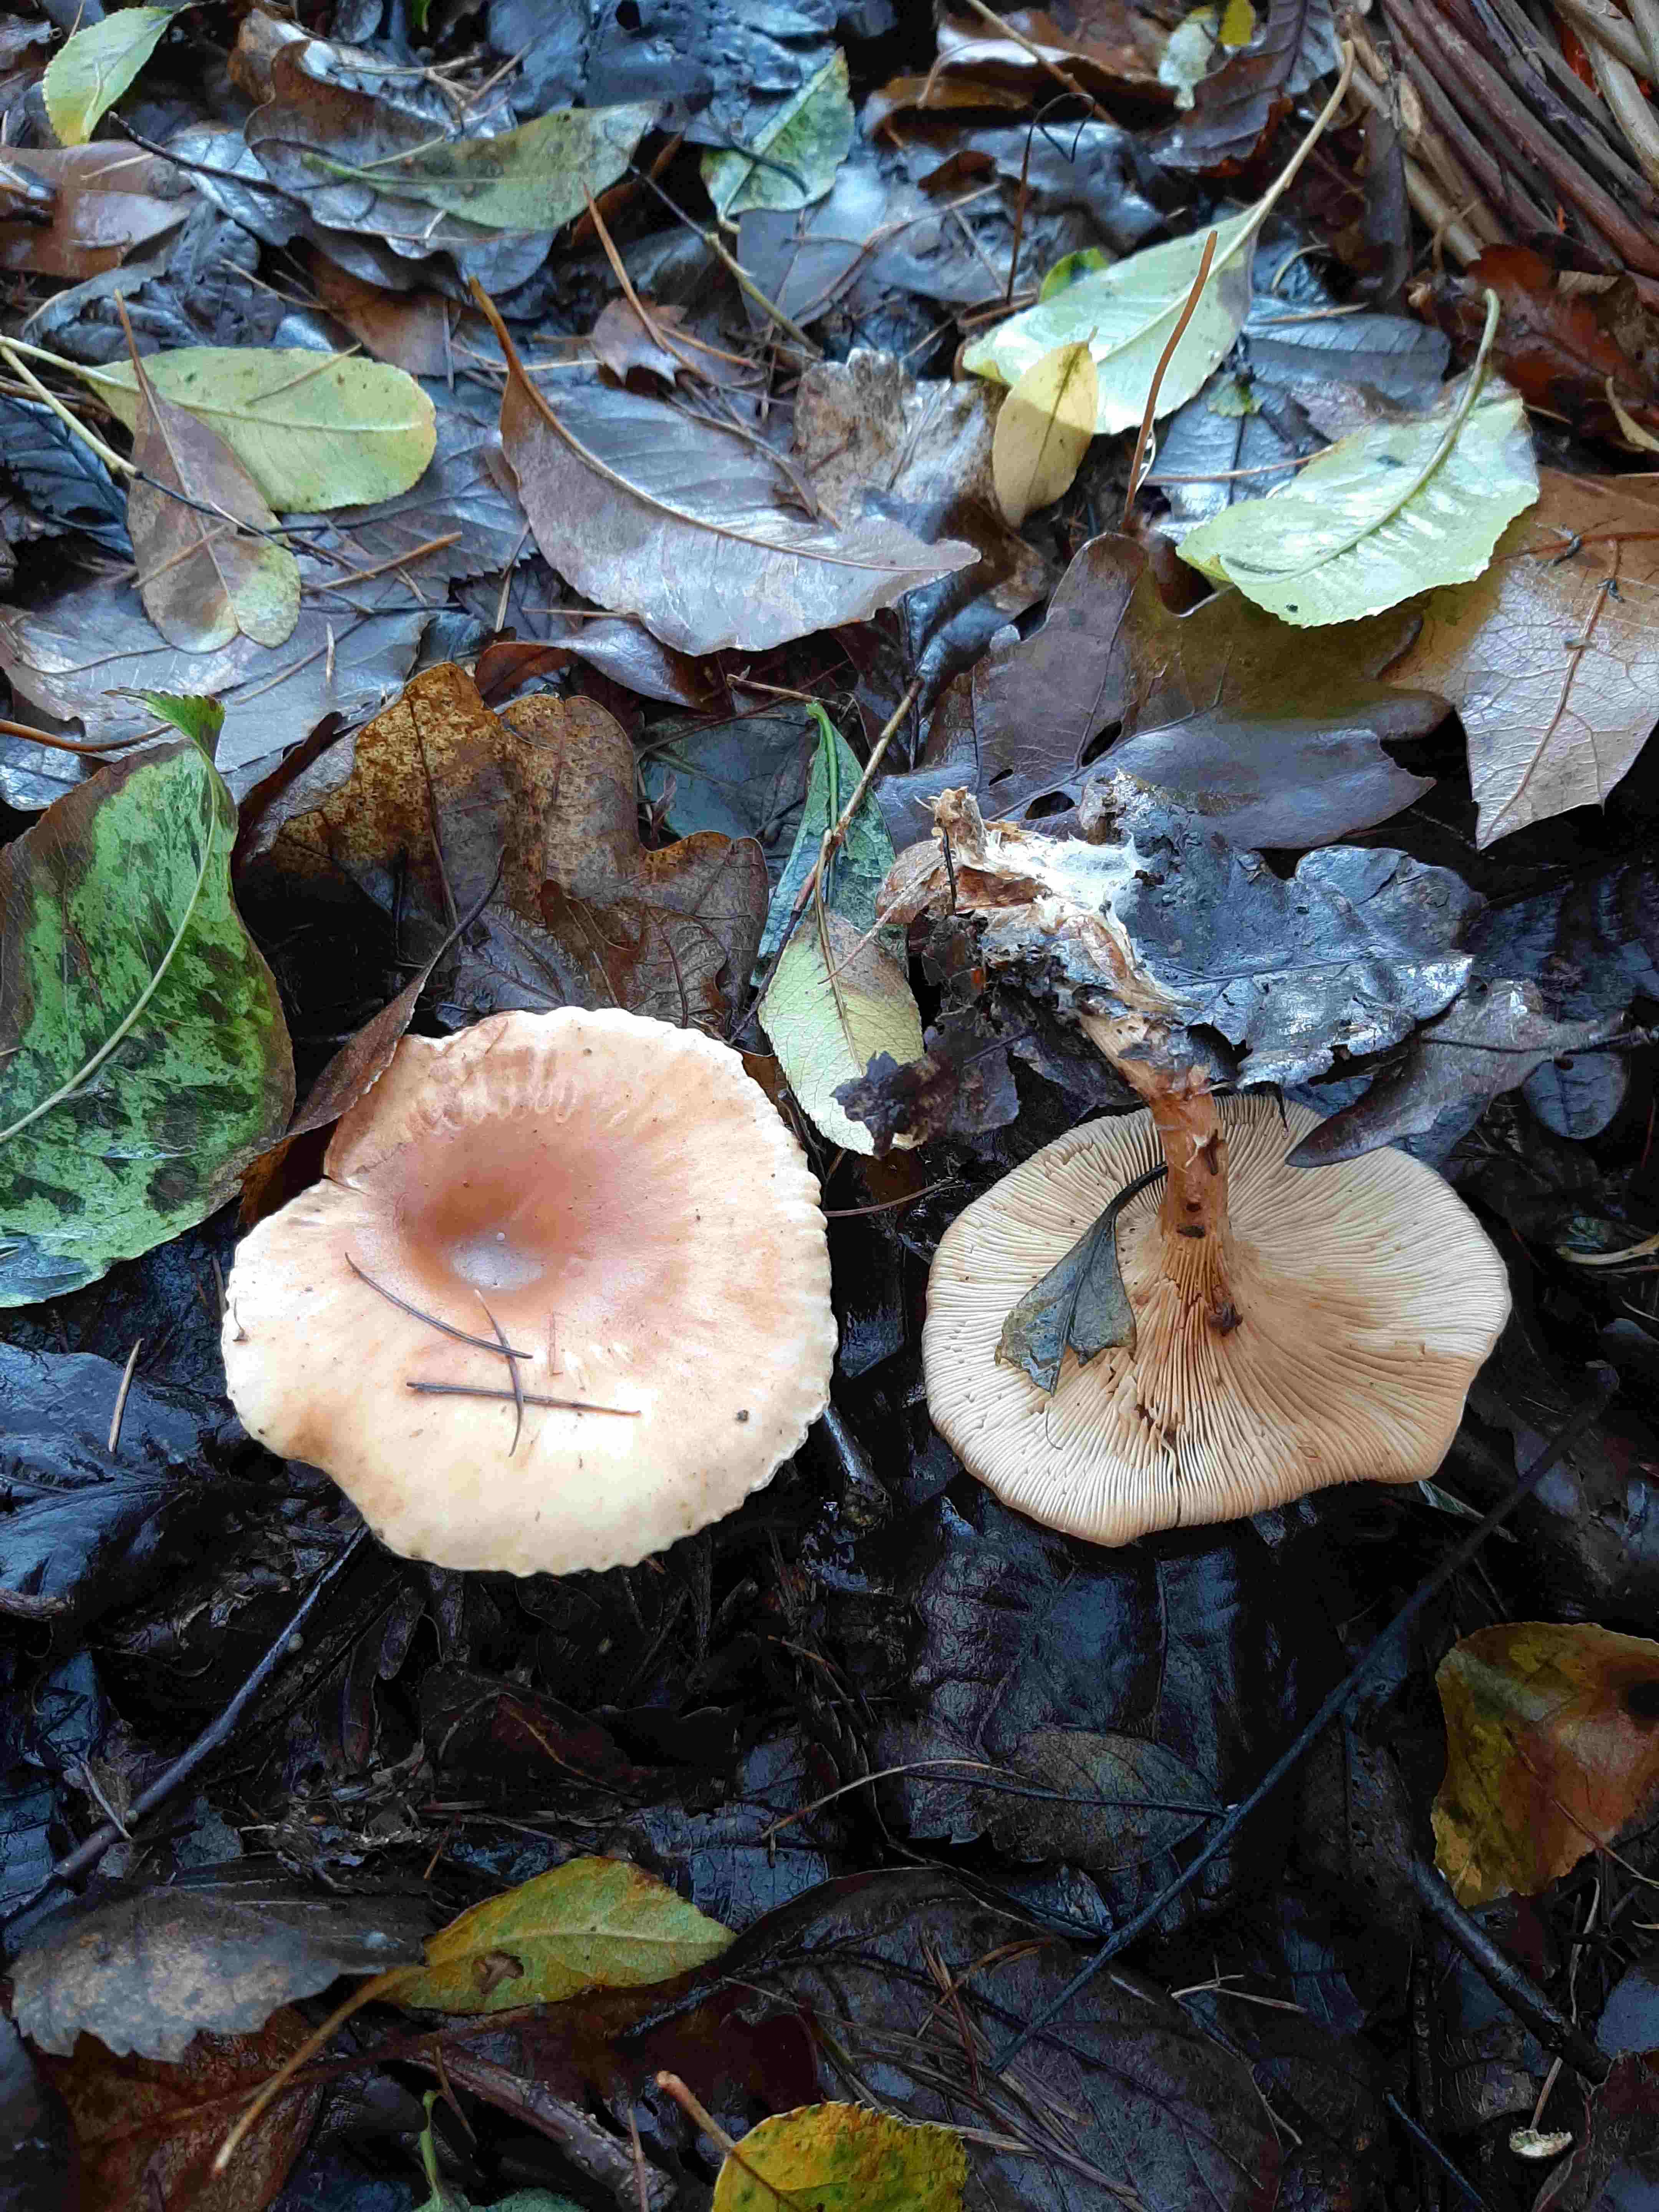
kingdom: Fungi
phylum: Basidiomycota
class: Agaricomycetes
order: Agaricales
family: Tricholomataceae
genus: Paralepista
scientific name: Paralepista flaccida
